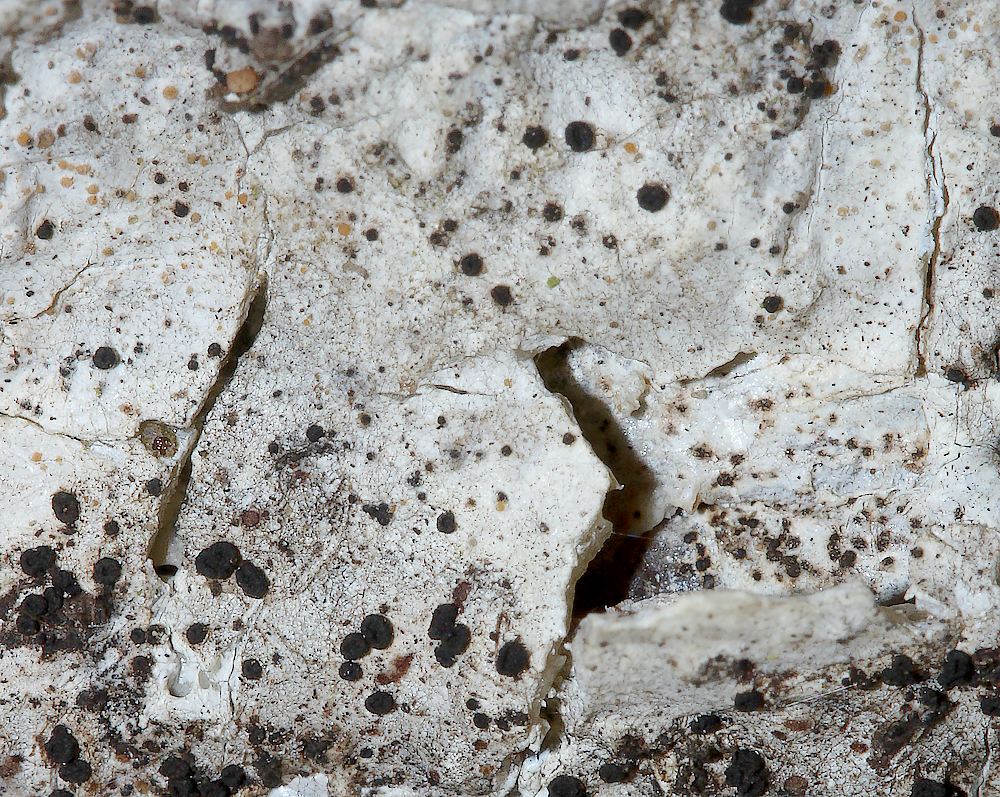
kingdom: Fungi
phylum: Ascomycota
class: Lecanoromycetes
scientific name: Lecanoromycetes
